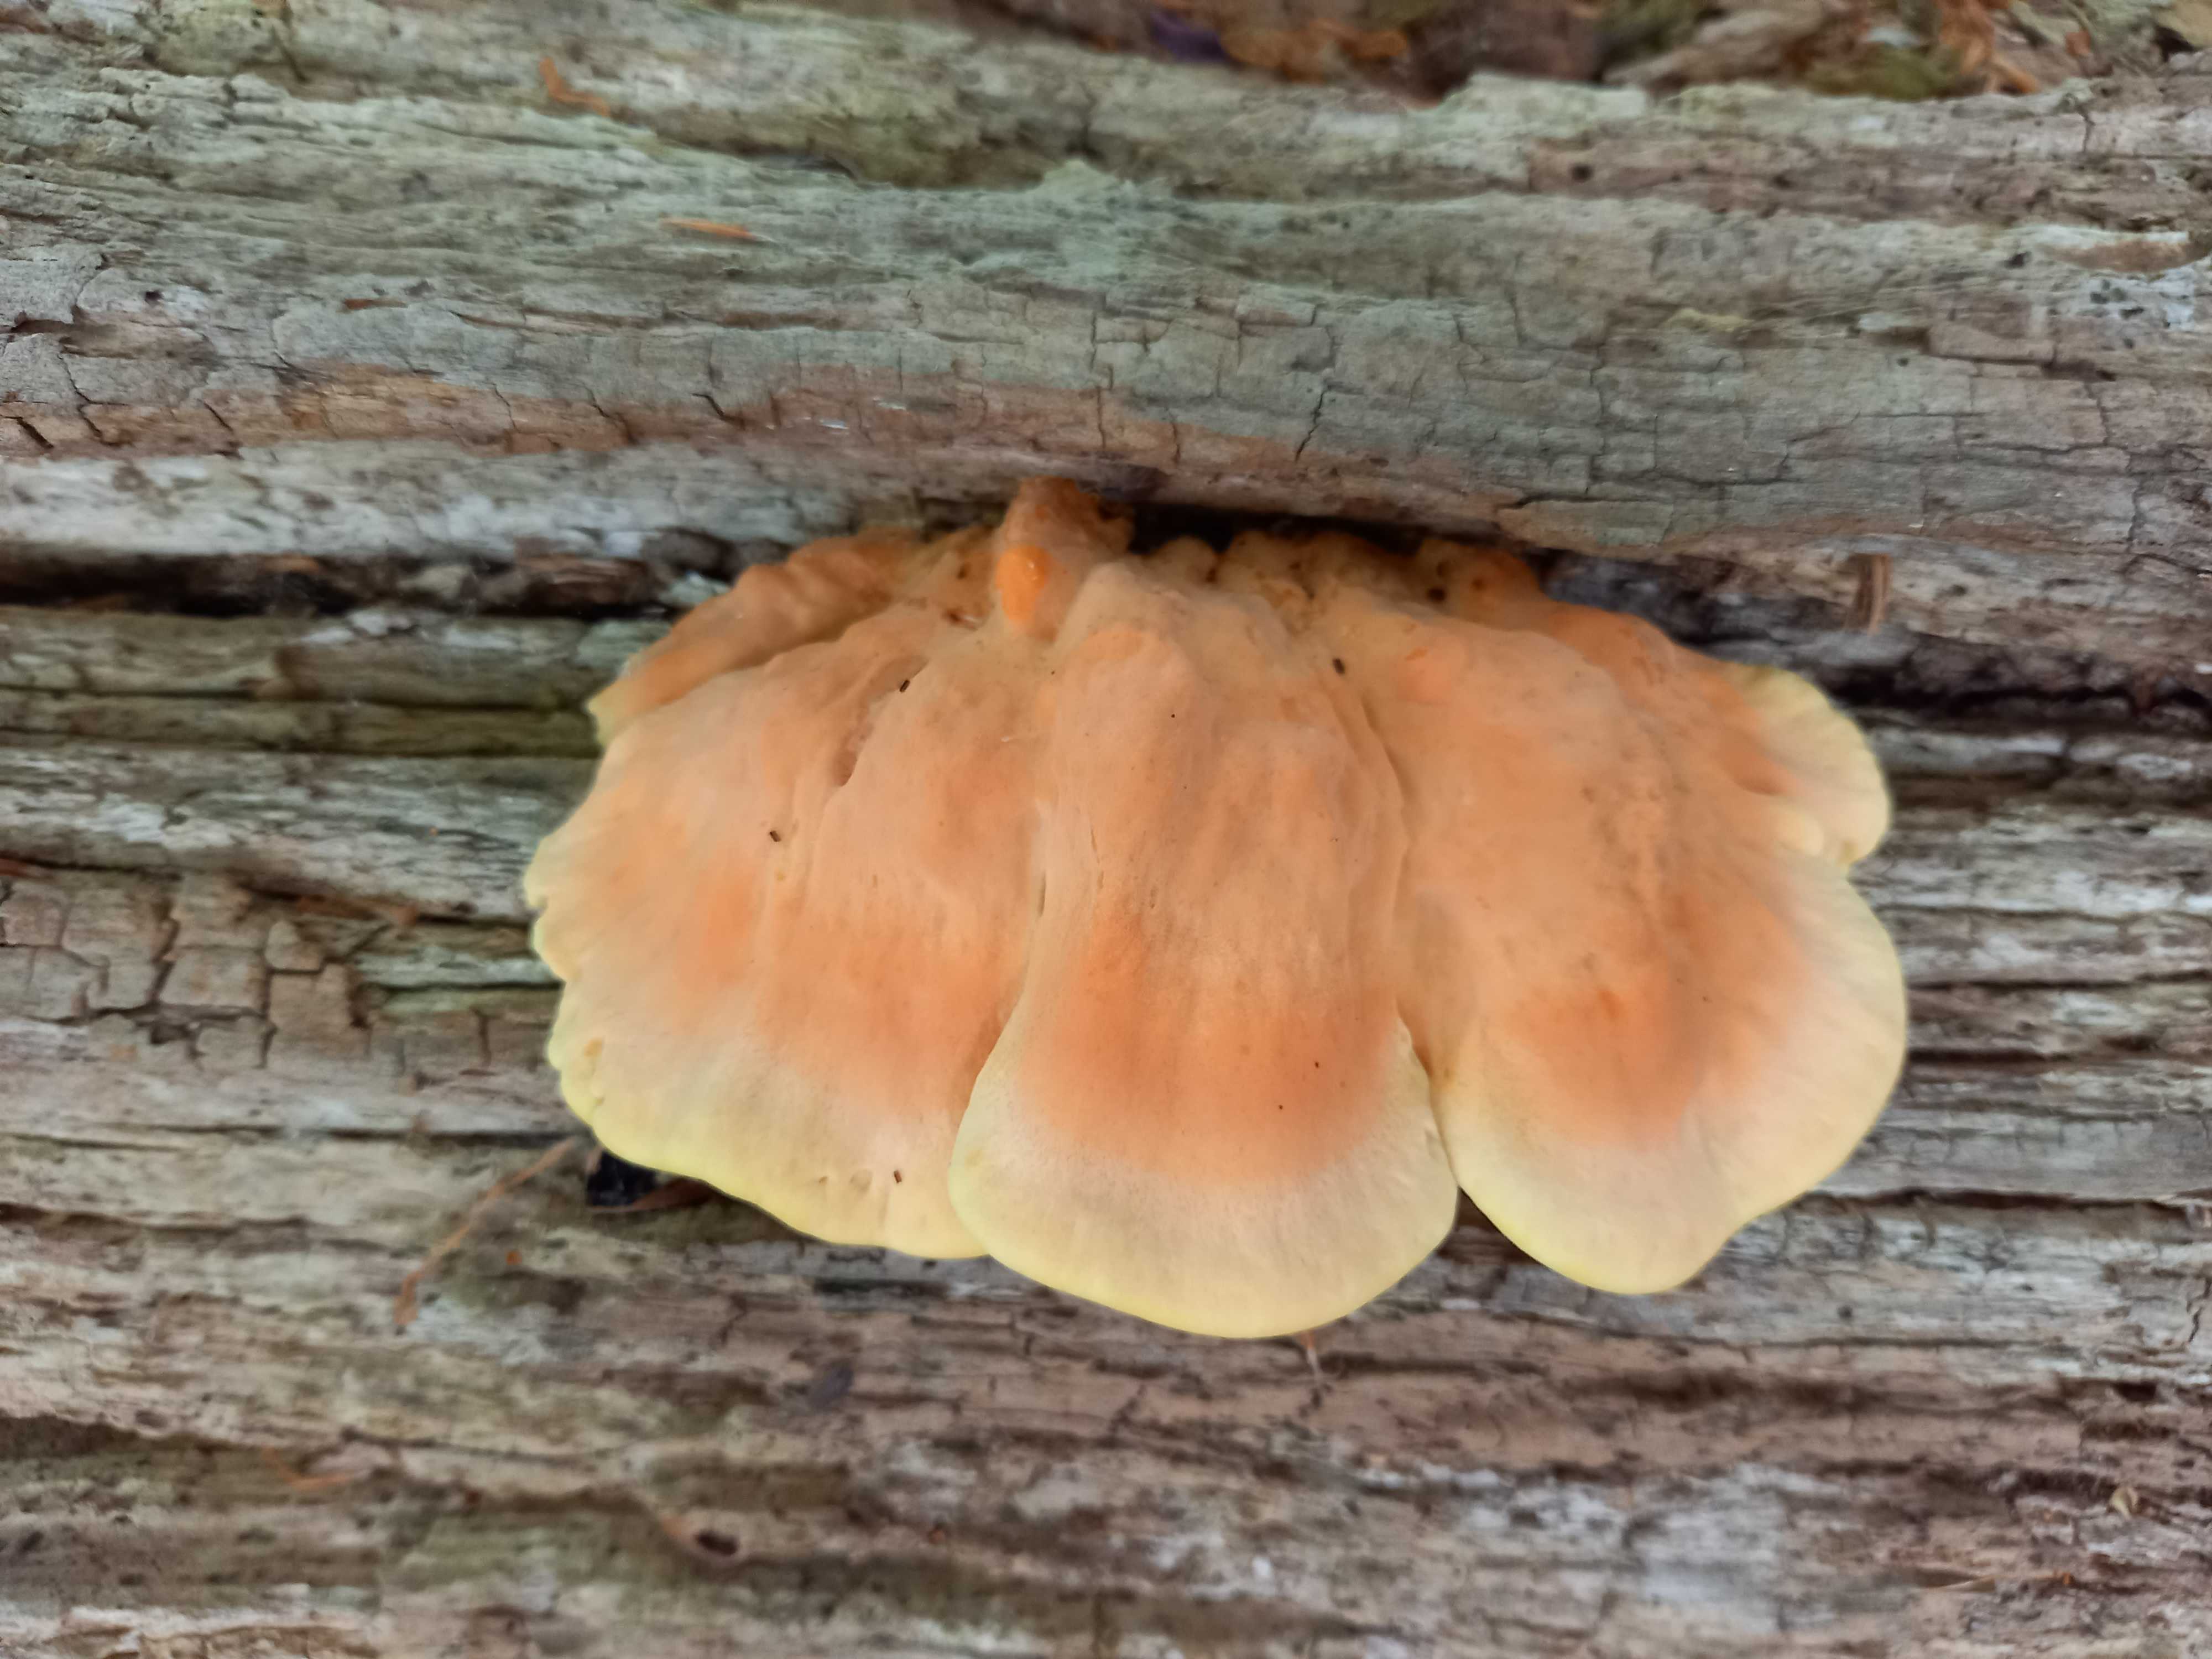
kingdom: Fungi
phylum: Basidiomycota
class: Agaricomycetes
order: Polyporales
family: Laetiporaceae
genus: Laetiporus
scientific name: Laetiporus sulphureus
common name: svovlporesvamp
